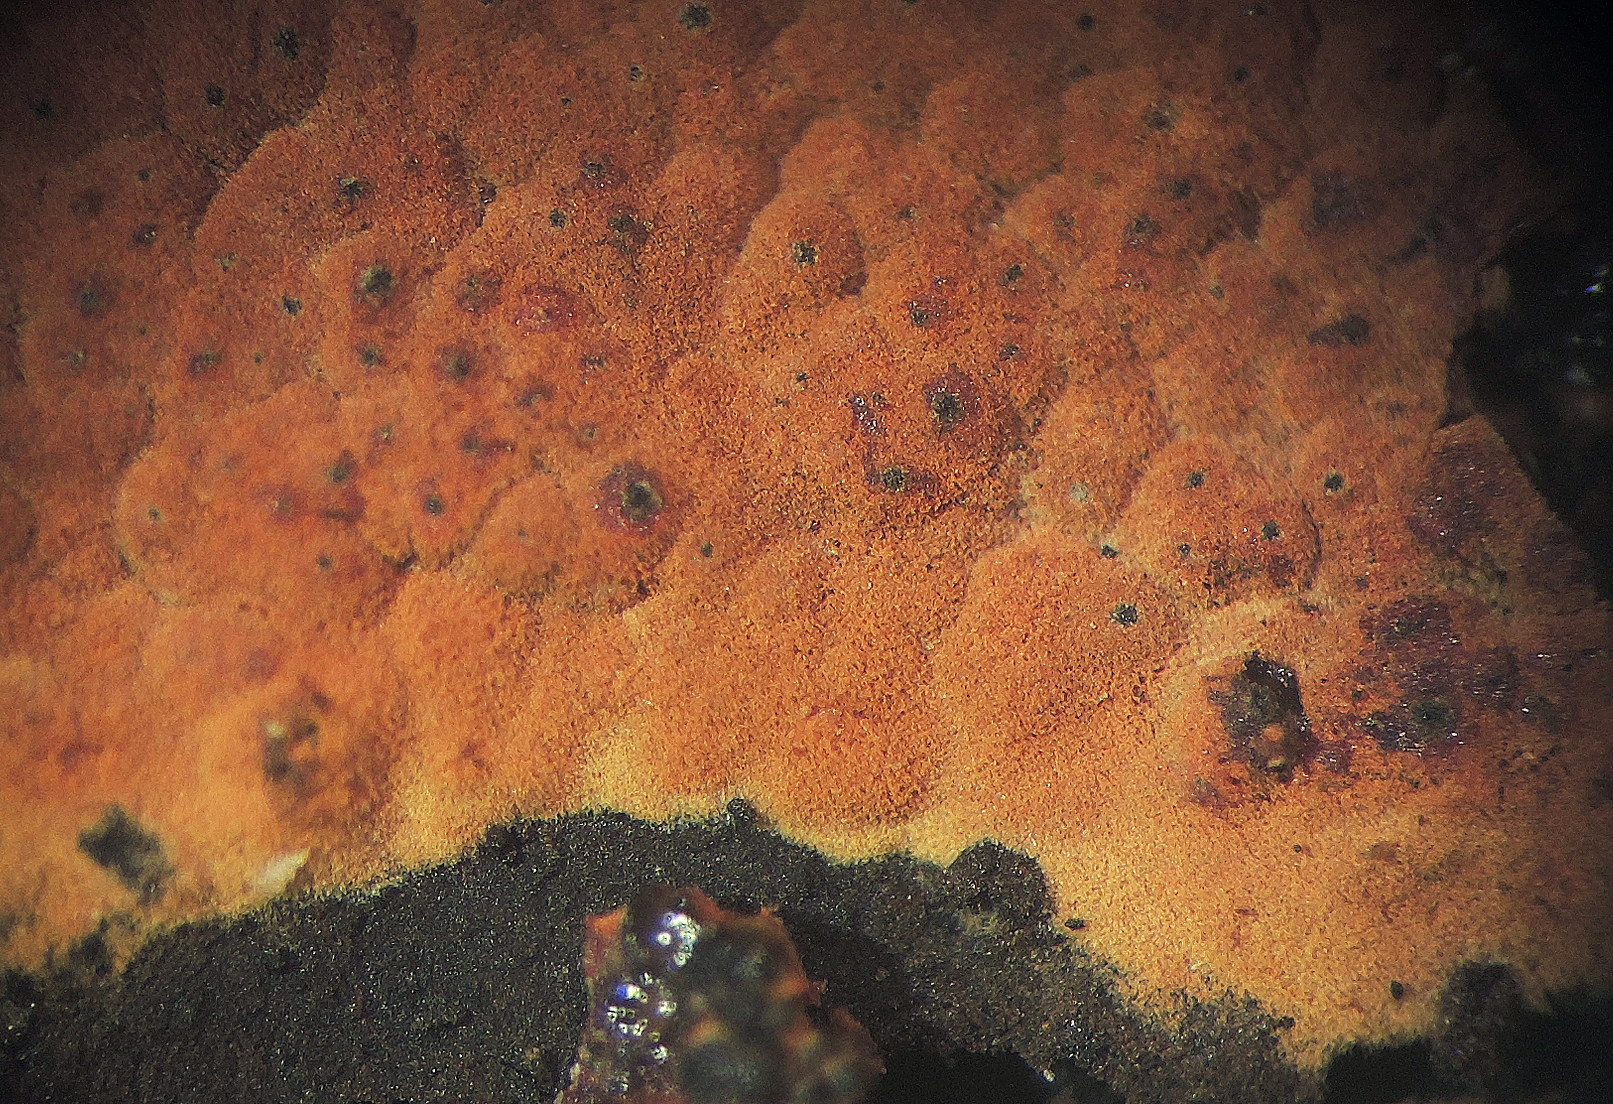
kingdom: Fungi
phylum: Ascomycota
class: Sordariomycetes
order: Xylariales
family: Hypoxylaceae
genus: Hypoxylon
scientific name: Hypoxylon
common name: kulbær
